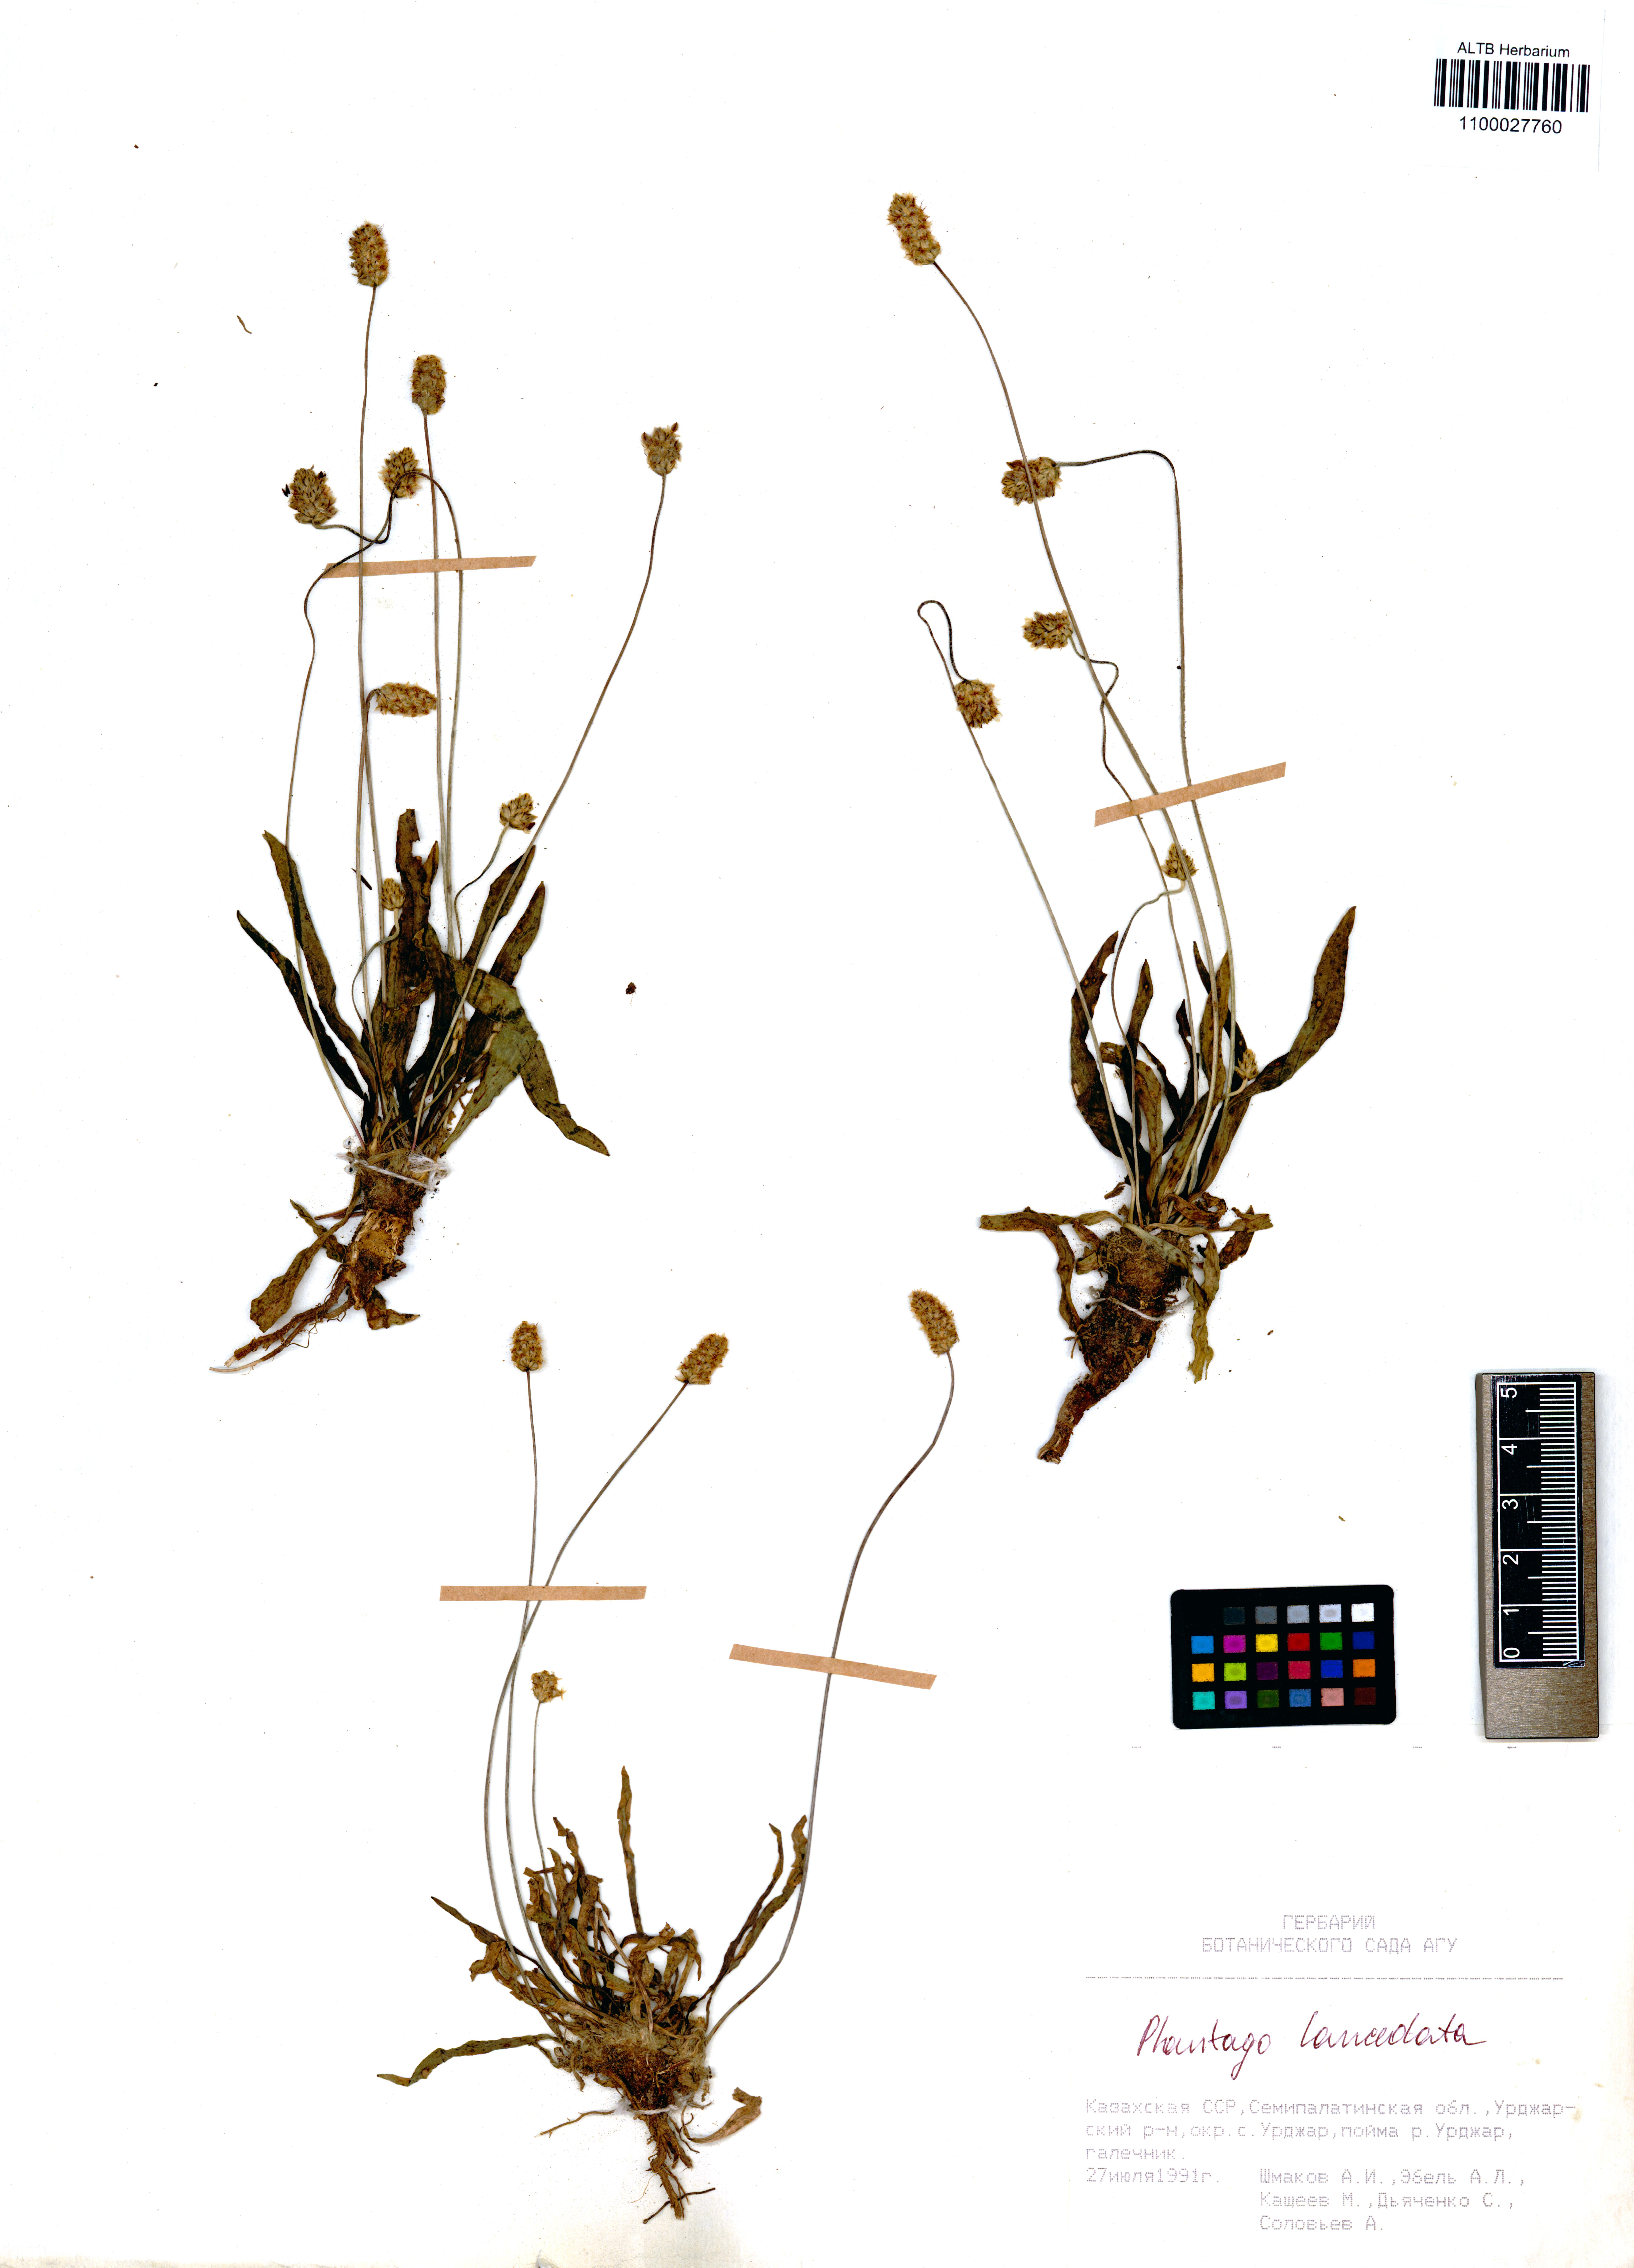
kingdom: Plantae
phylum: Tracheophyta
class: Magnoliopsida
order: Lamiales
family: Plantaginaceae
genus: Plantago
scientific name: Plantago lanceolata
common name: Ribwort plantain
